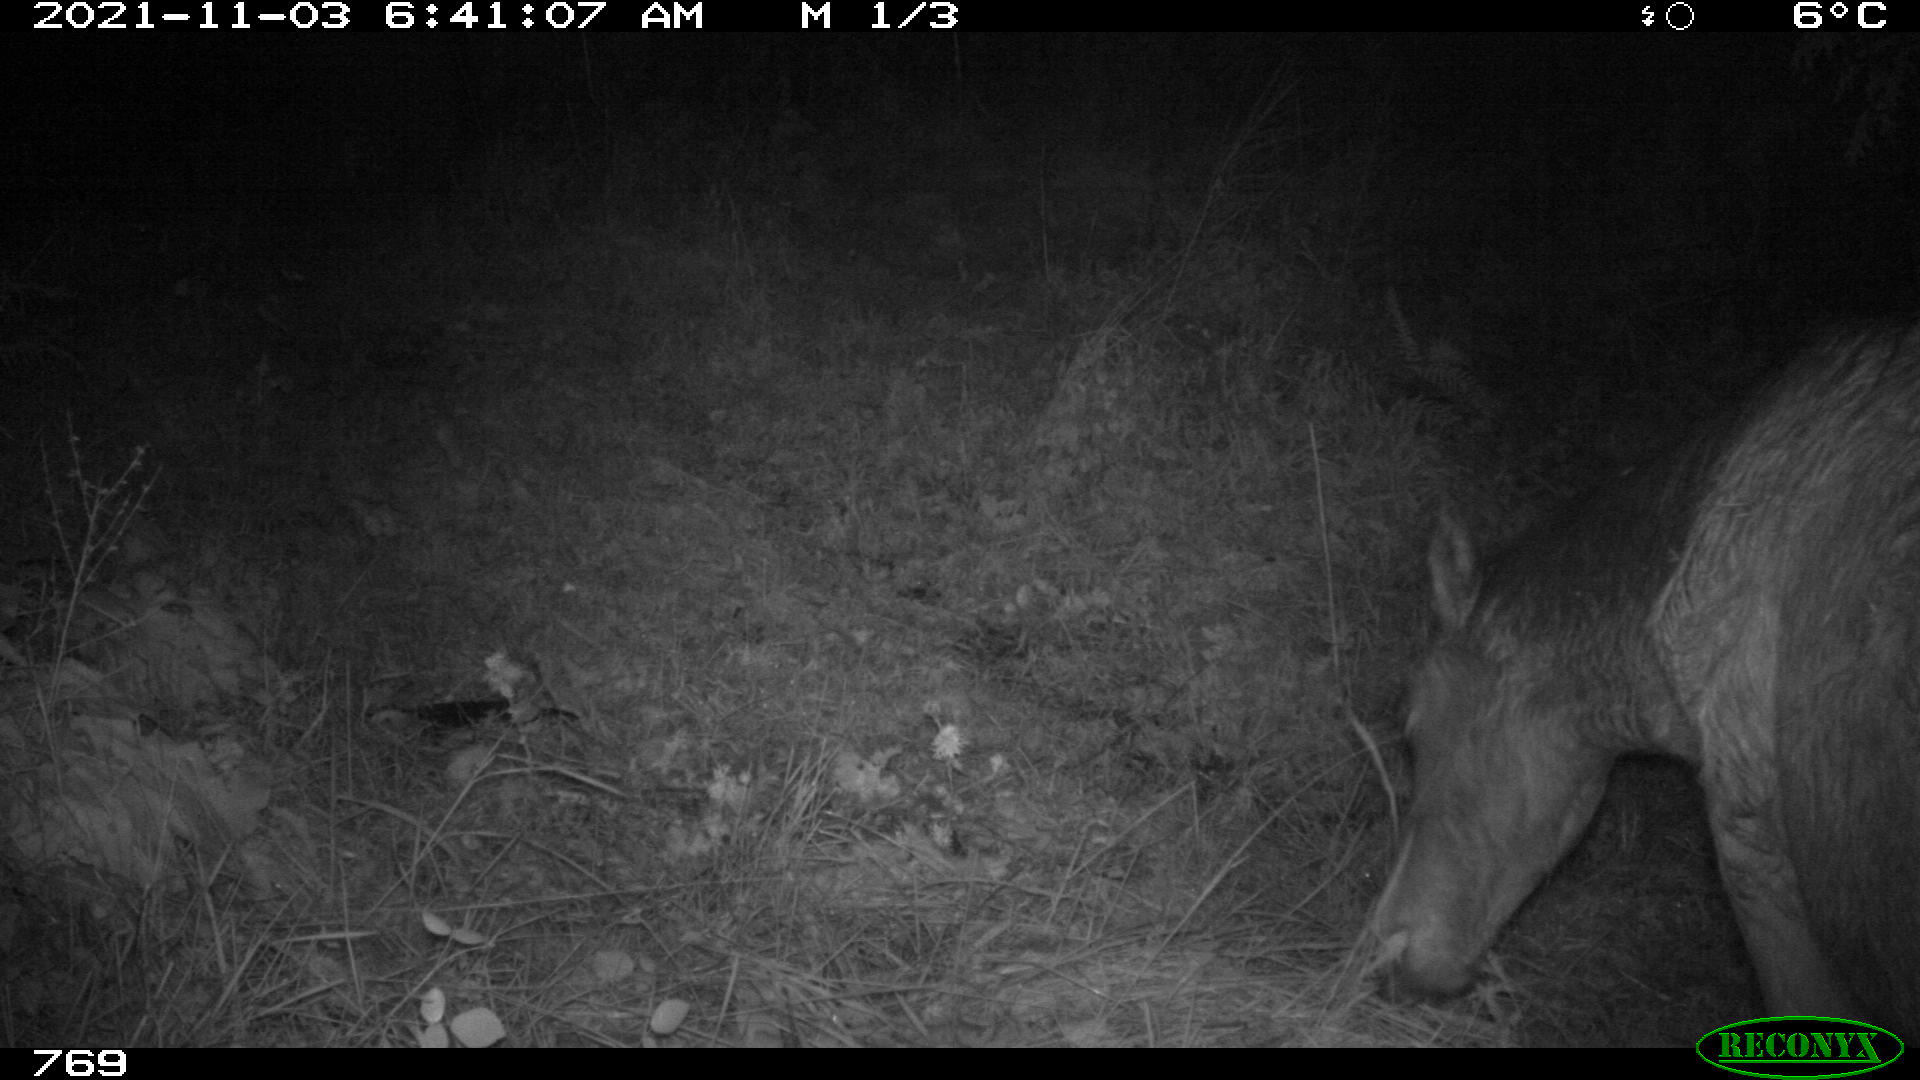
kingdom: Animalia
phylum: Chordata
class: Mammalia
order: Perissodactyla
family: Equidae
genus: Equus
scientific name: Equus caballus
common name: Horse
